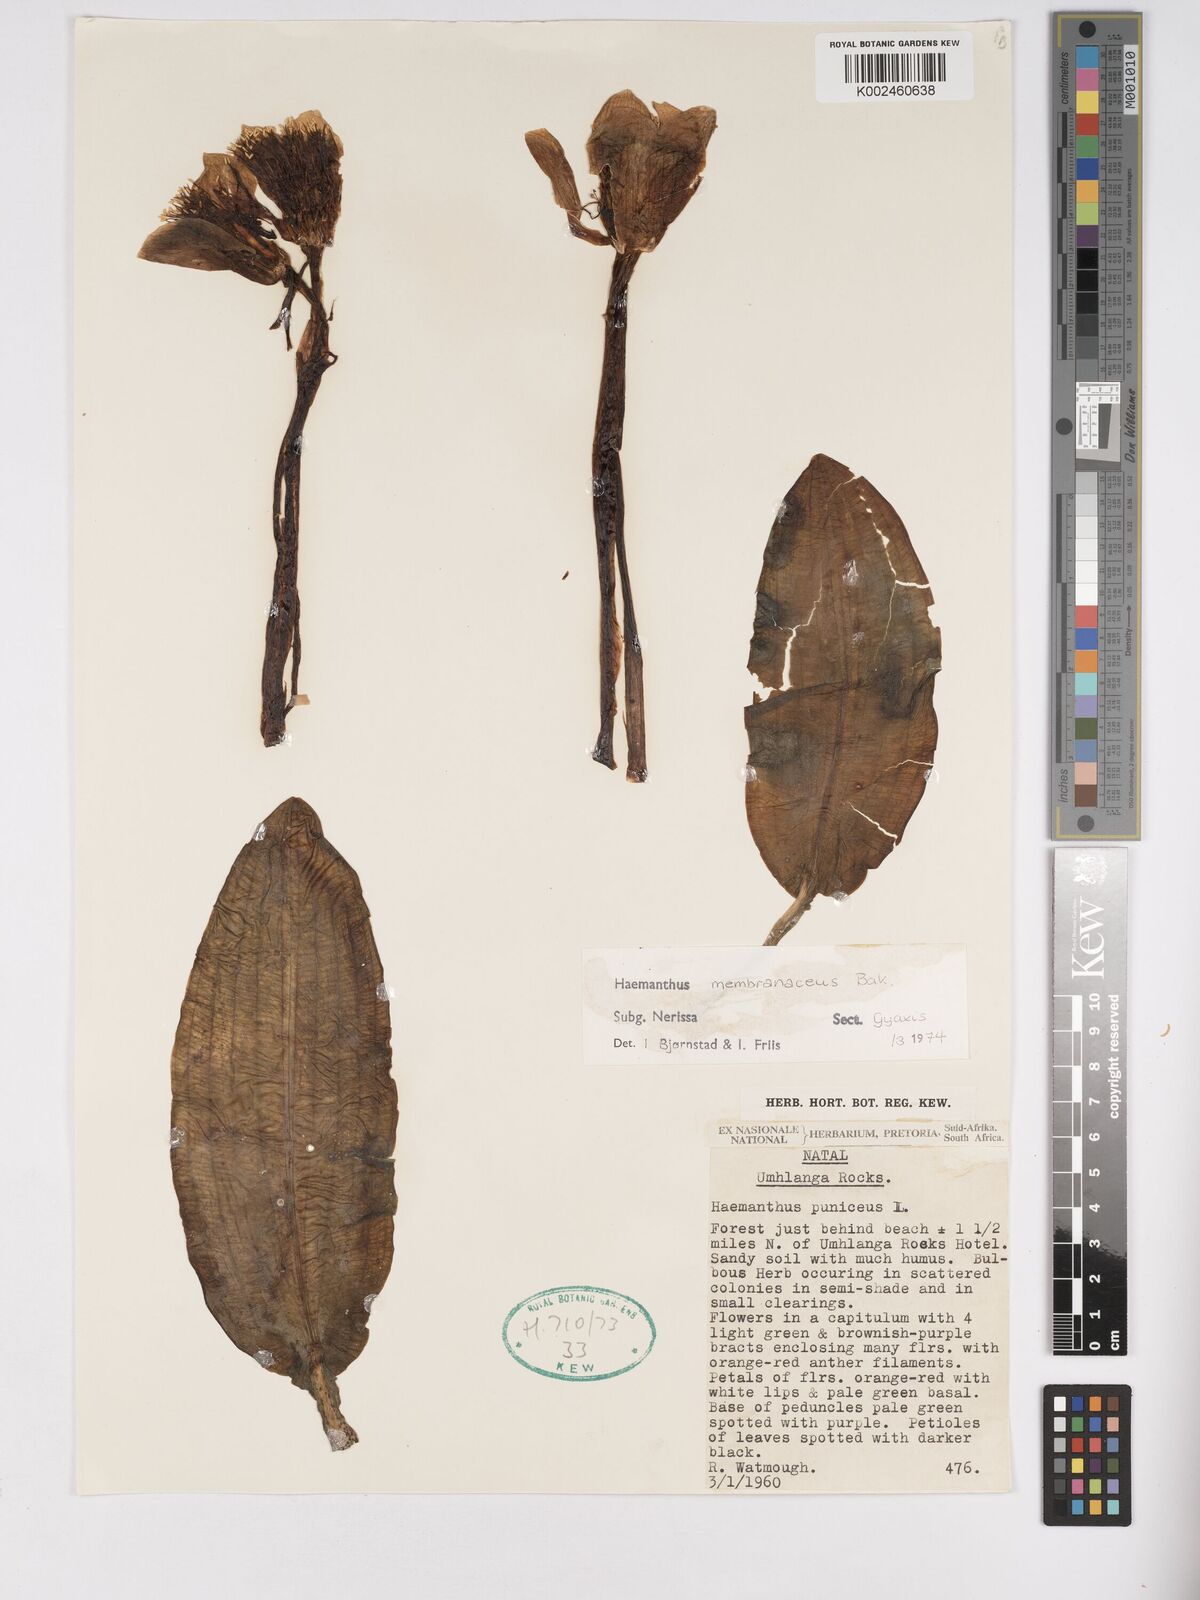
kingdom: Plantae
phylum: Tracheophyta
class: Liliopsida
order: Asparagales
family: Amaryllidaceae
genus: Scadoxus
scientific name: Scadoxus membranaceus
